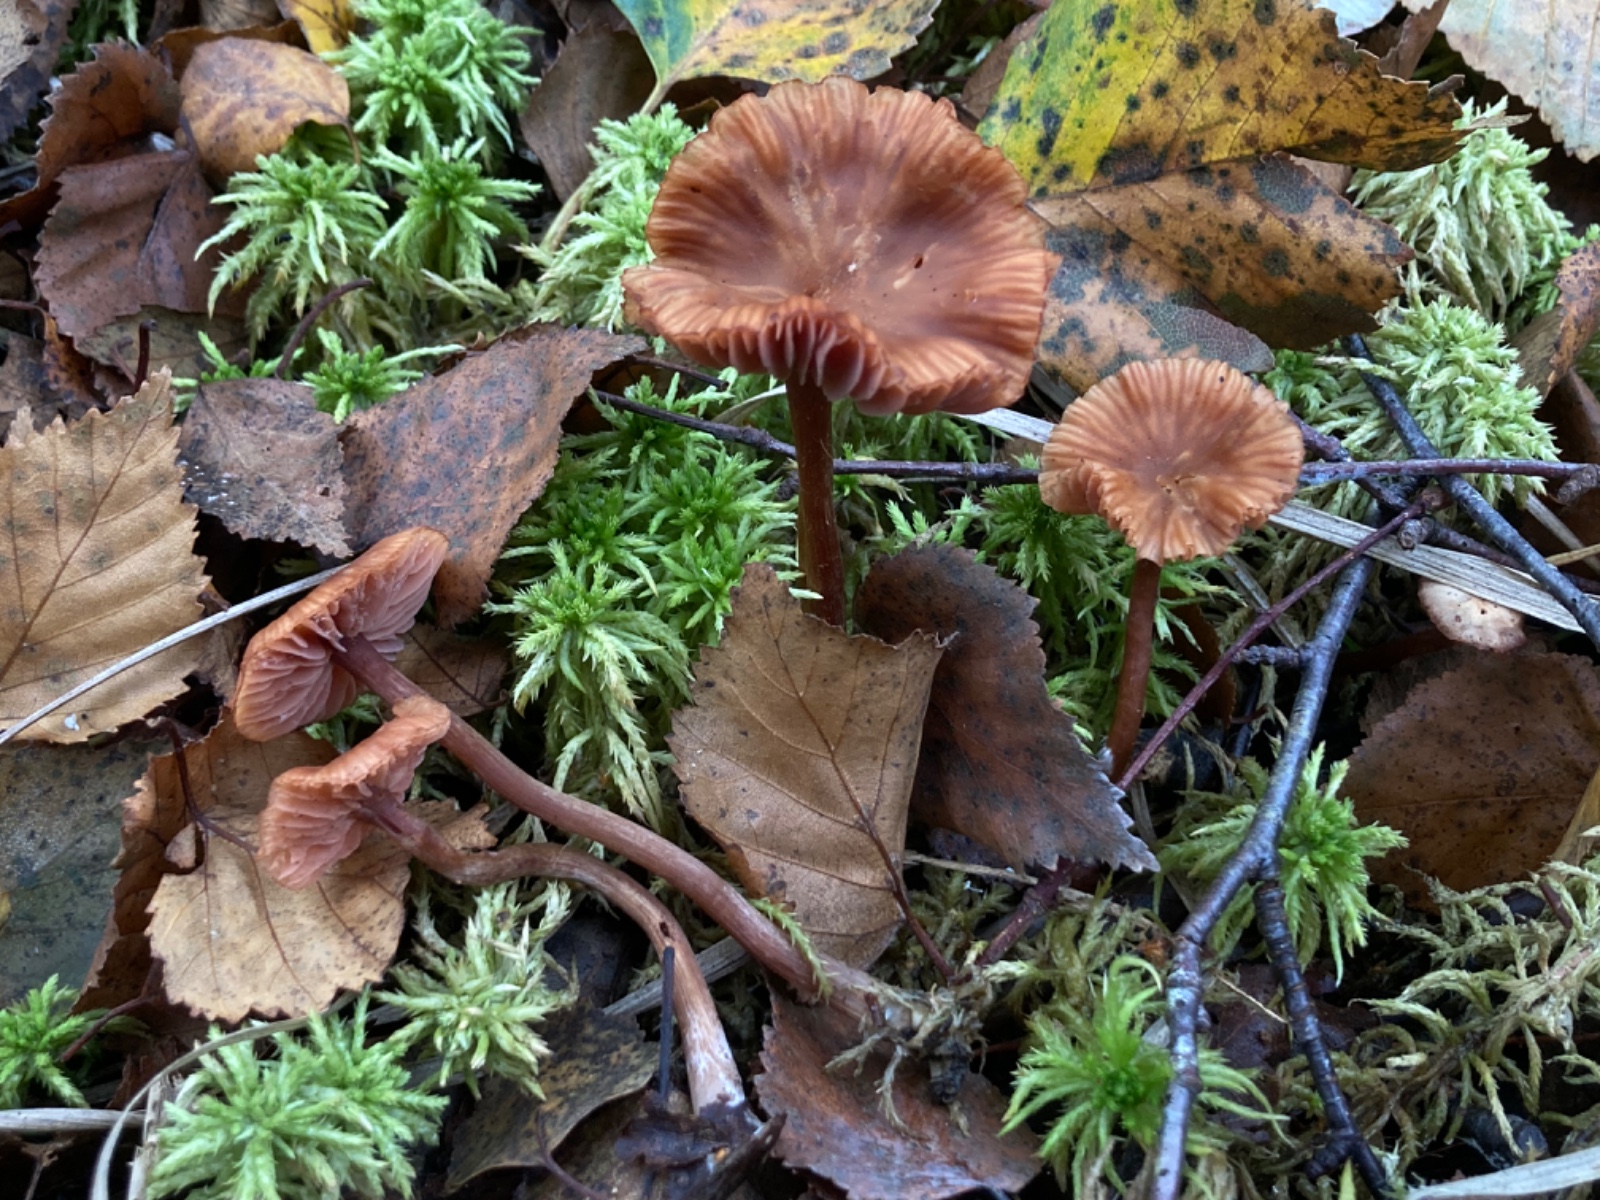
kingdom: Fungi
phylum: Basidiomycota
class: Agaricomycetes
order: Agaricales
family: Hydnangiaceae
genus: Laccaria
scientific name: Laccaria proxima
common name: stor ametysthat
